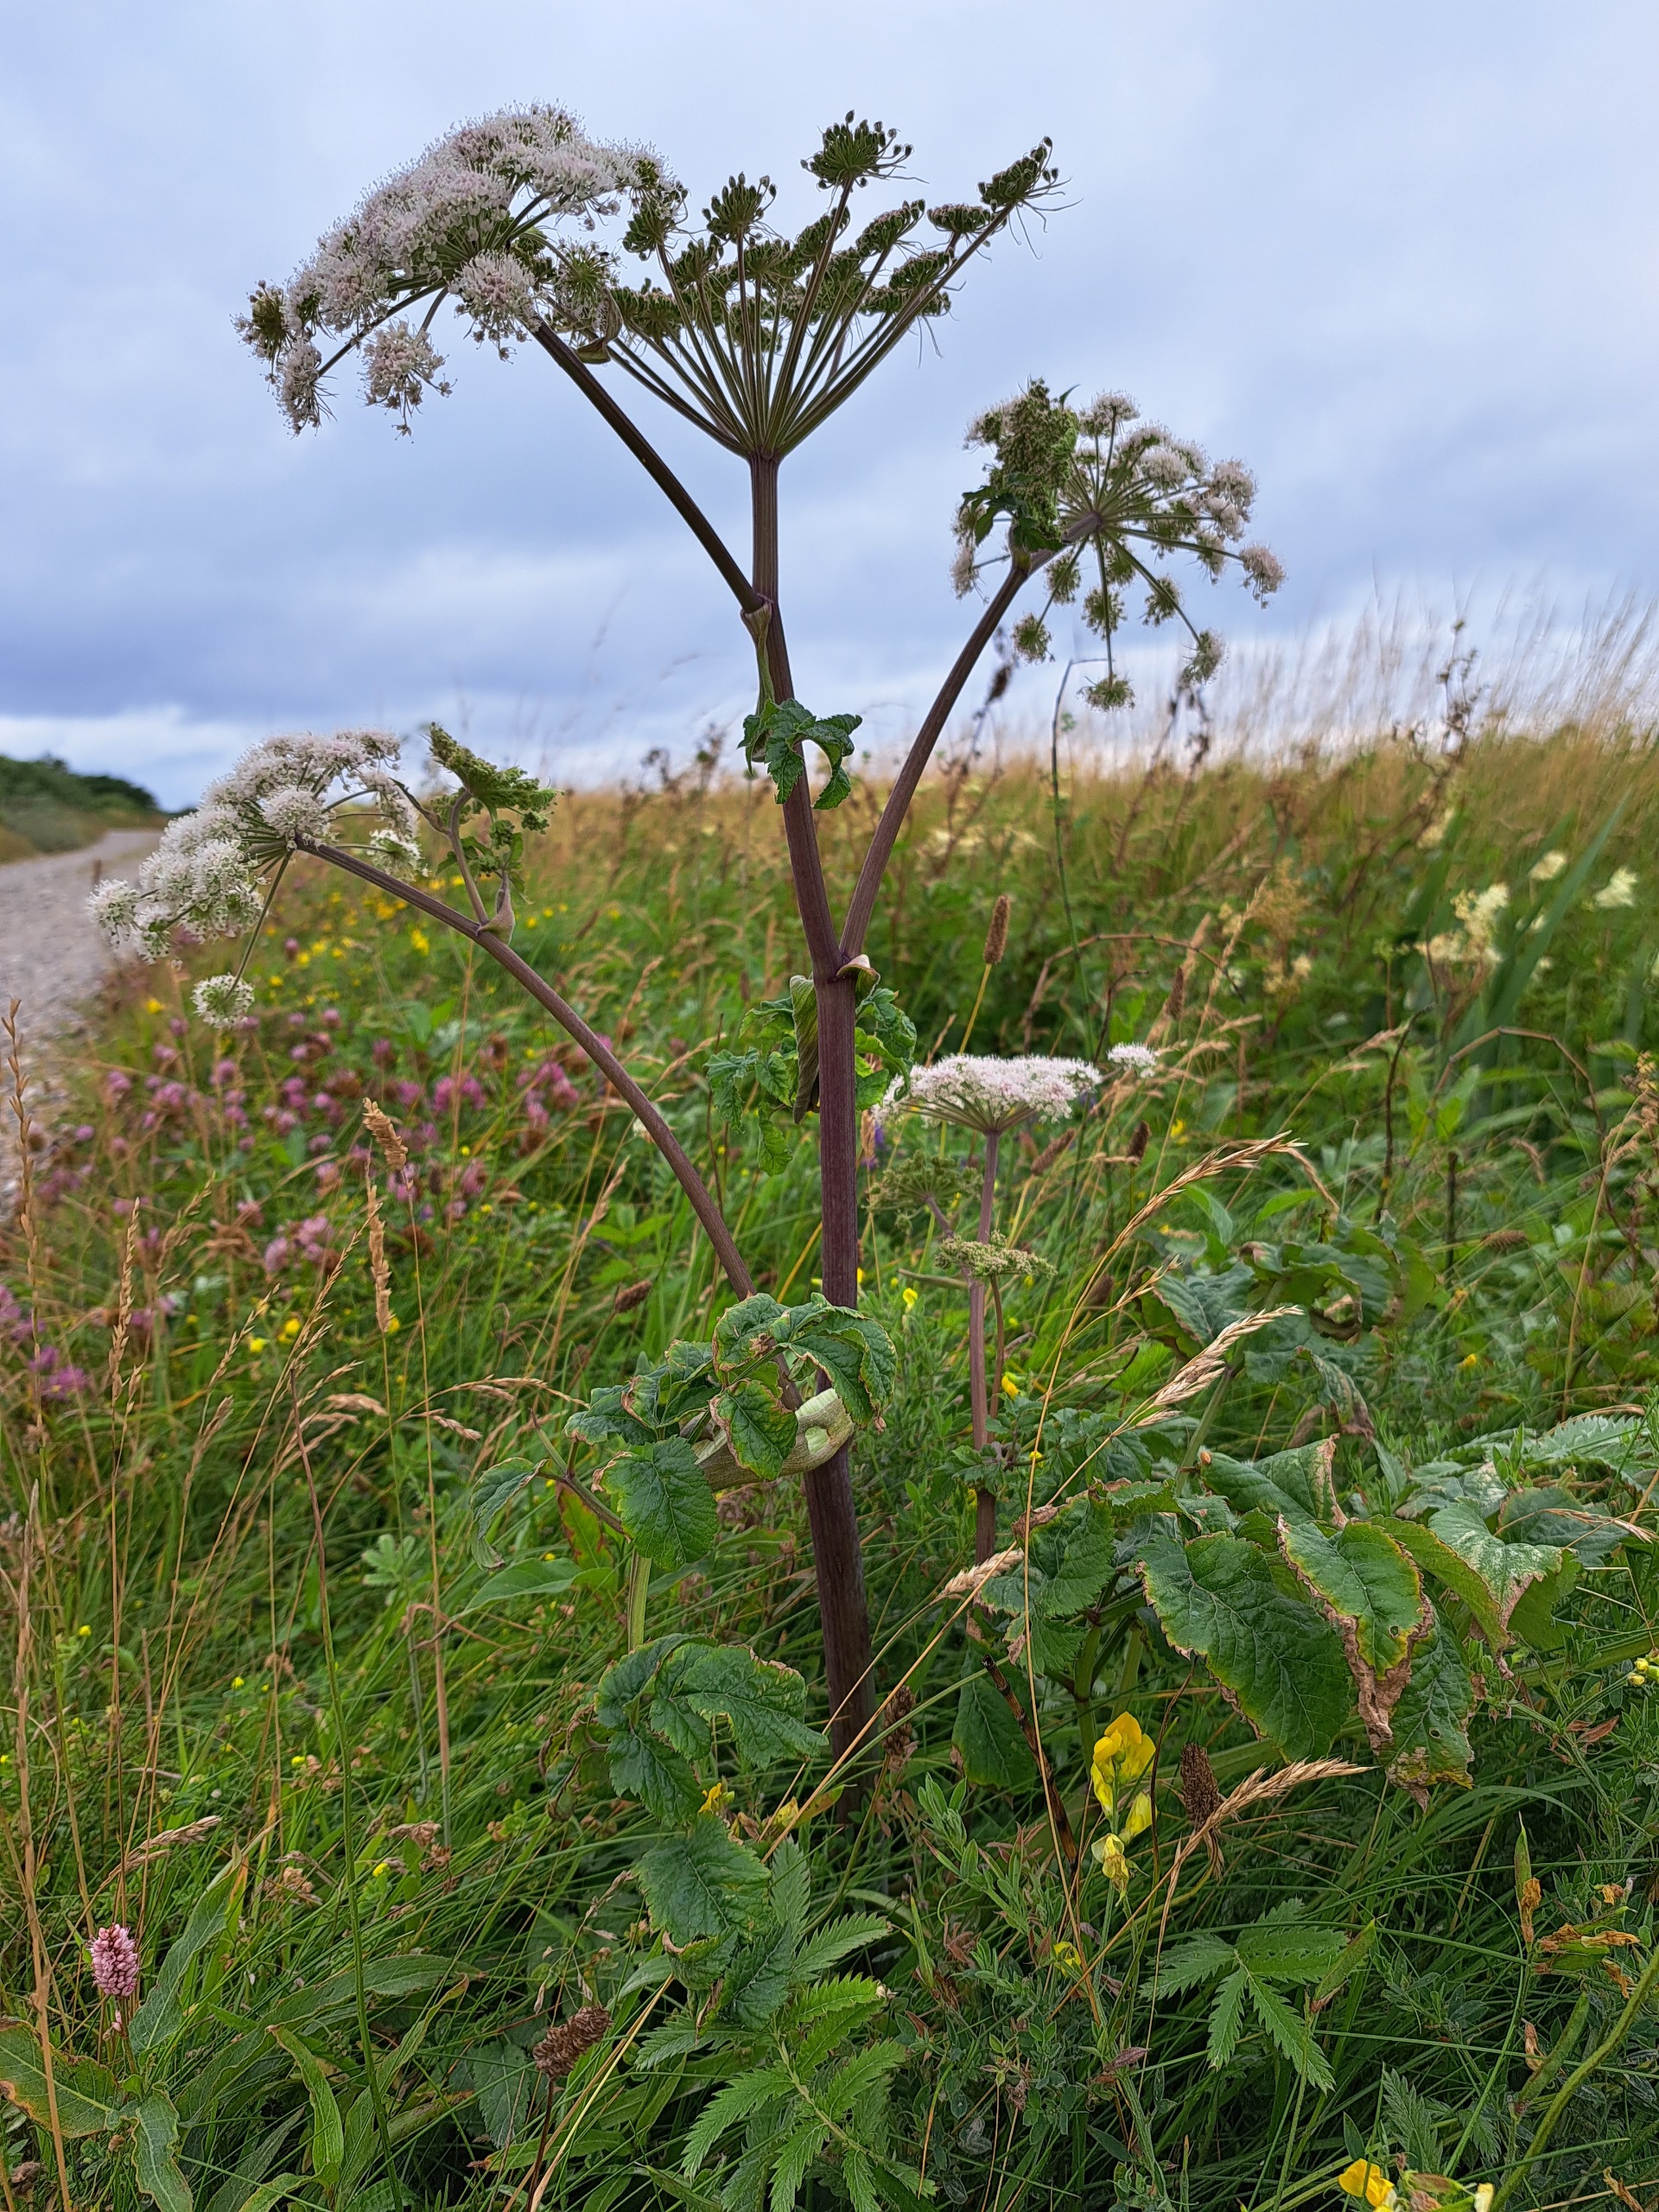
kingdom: Plantae
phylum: Tracheophyta
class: Magnoliopsida
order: Apiales
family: Apiaceae
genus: Angelica
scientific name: Angelica sylvestris
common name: Angelik
